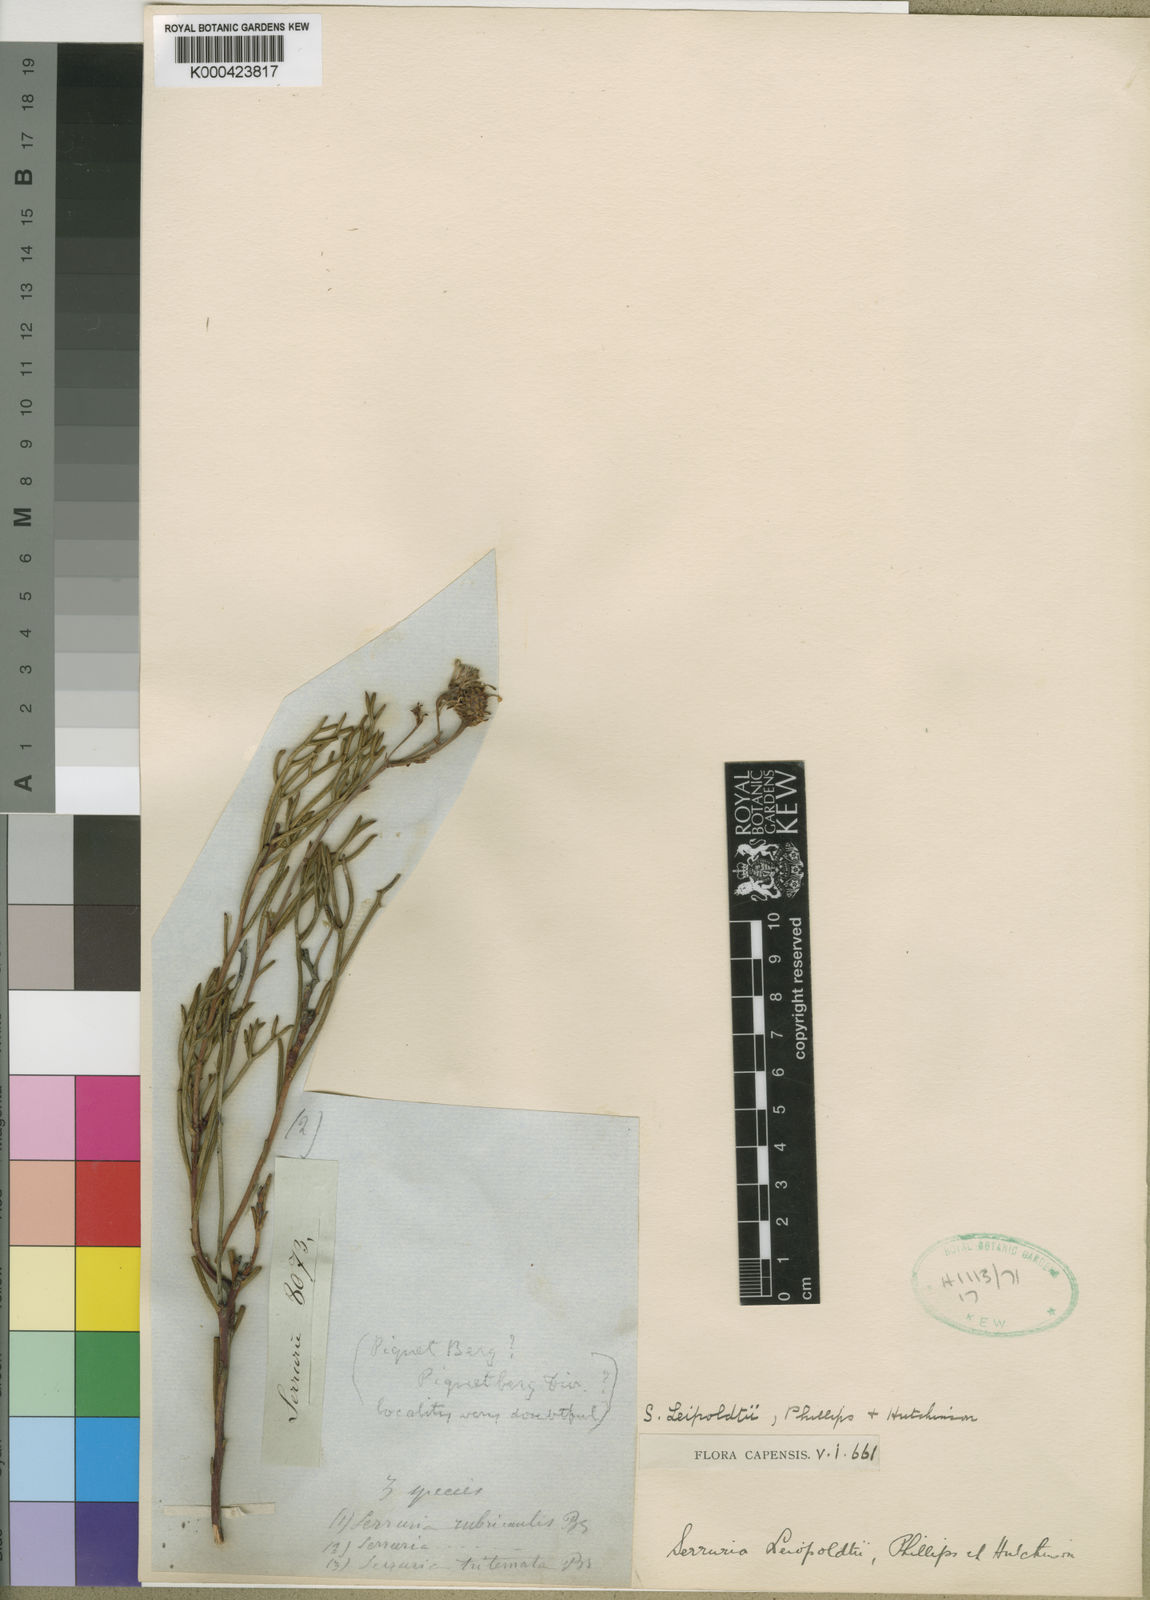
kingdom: Plantae
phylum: Tracheophyta
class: Magnoliopsida
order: Proteales
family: Proteaceae
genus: Serruria
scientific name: Serruria leipoldtii
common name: Leipoldt's spiderhead
